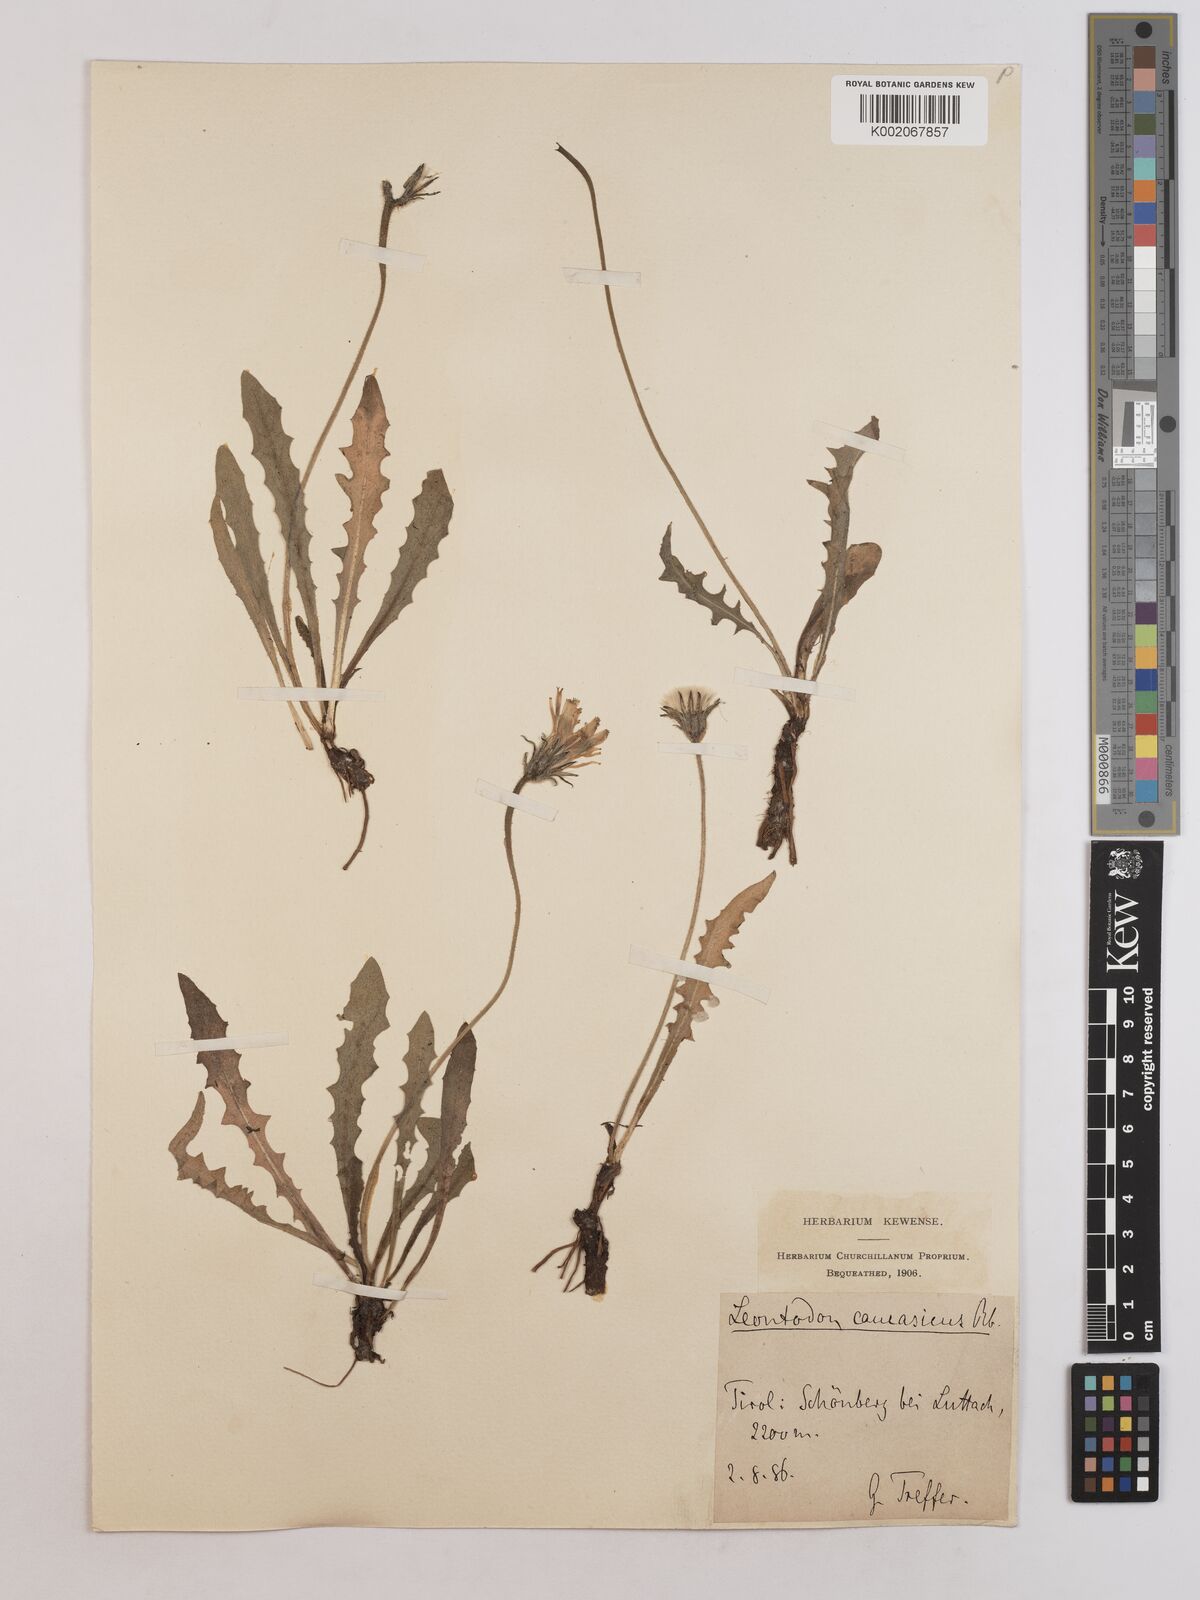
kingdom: Plantae
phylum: Tracheophyta
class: Magnoliopsida
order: Asterales
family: Asteraceae
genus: Leontodon
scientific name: Leontodon hispidus
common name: Rough hawkbit
